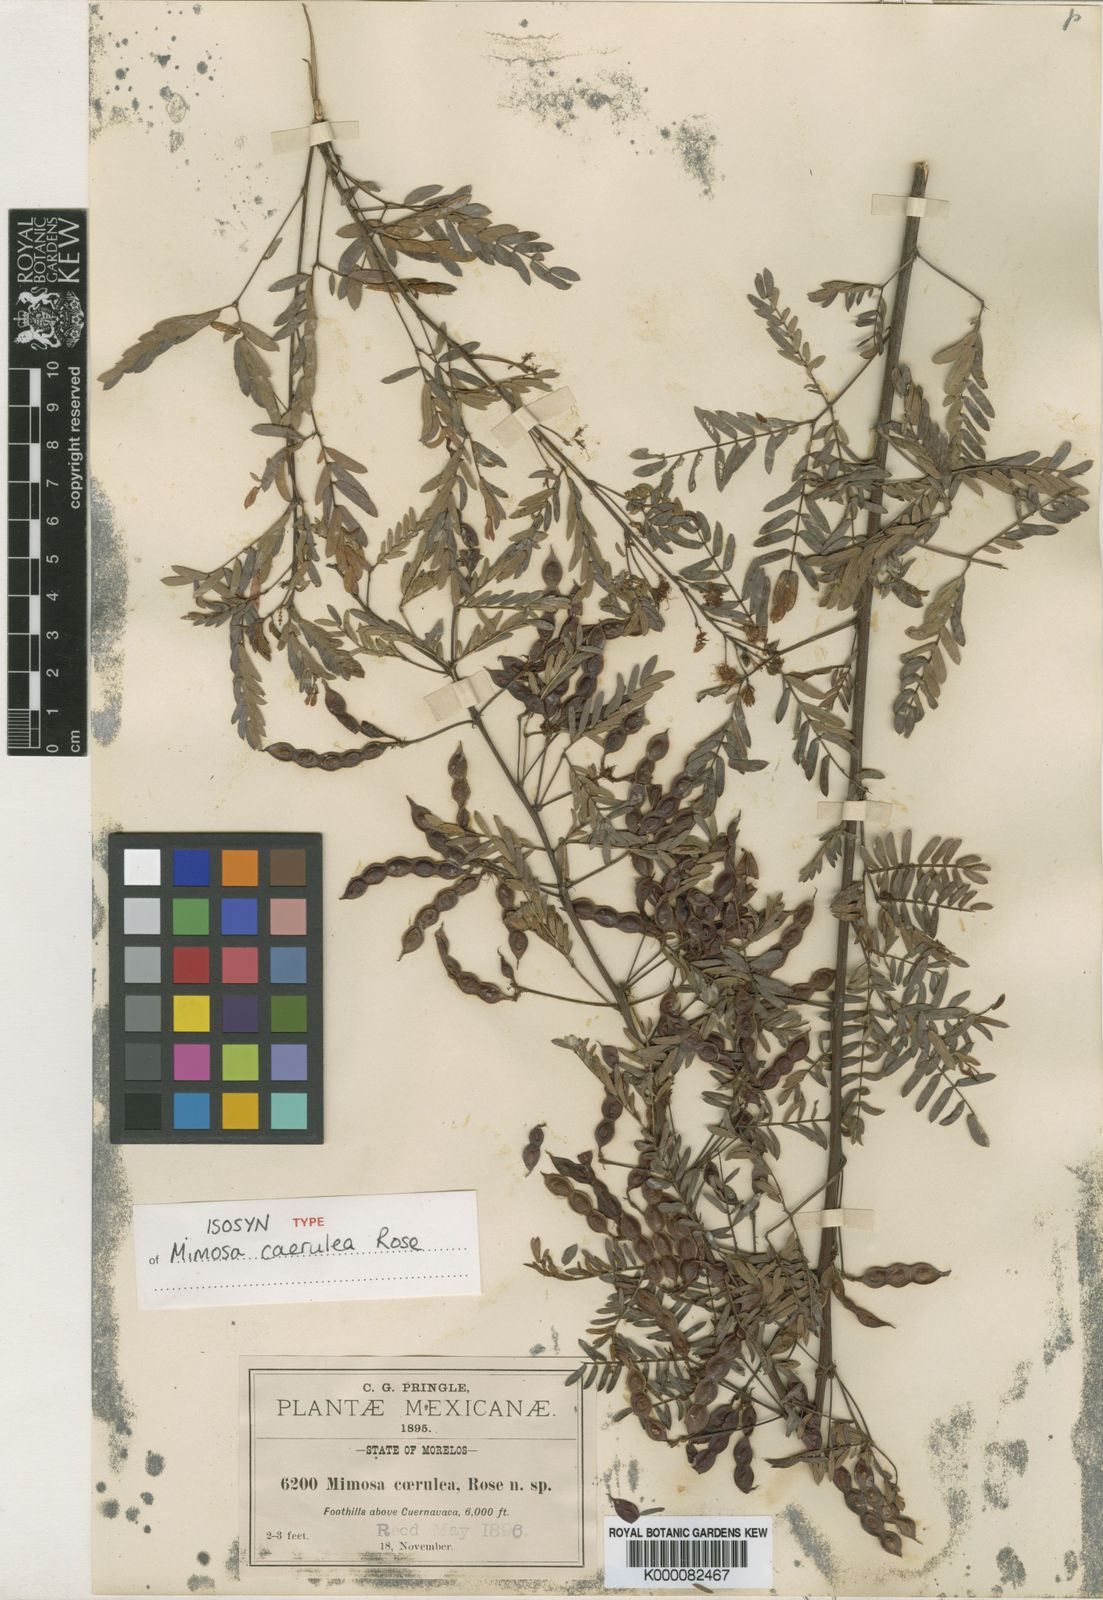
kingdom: Plantae
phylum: Tracheophyta
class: Magnoliopsida
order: Fabales
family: Fabaceae
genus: Mimosa
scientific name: Mimosa caerulea
